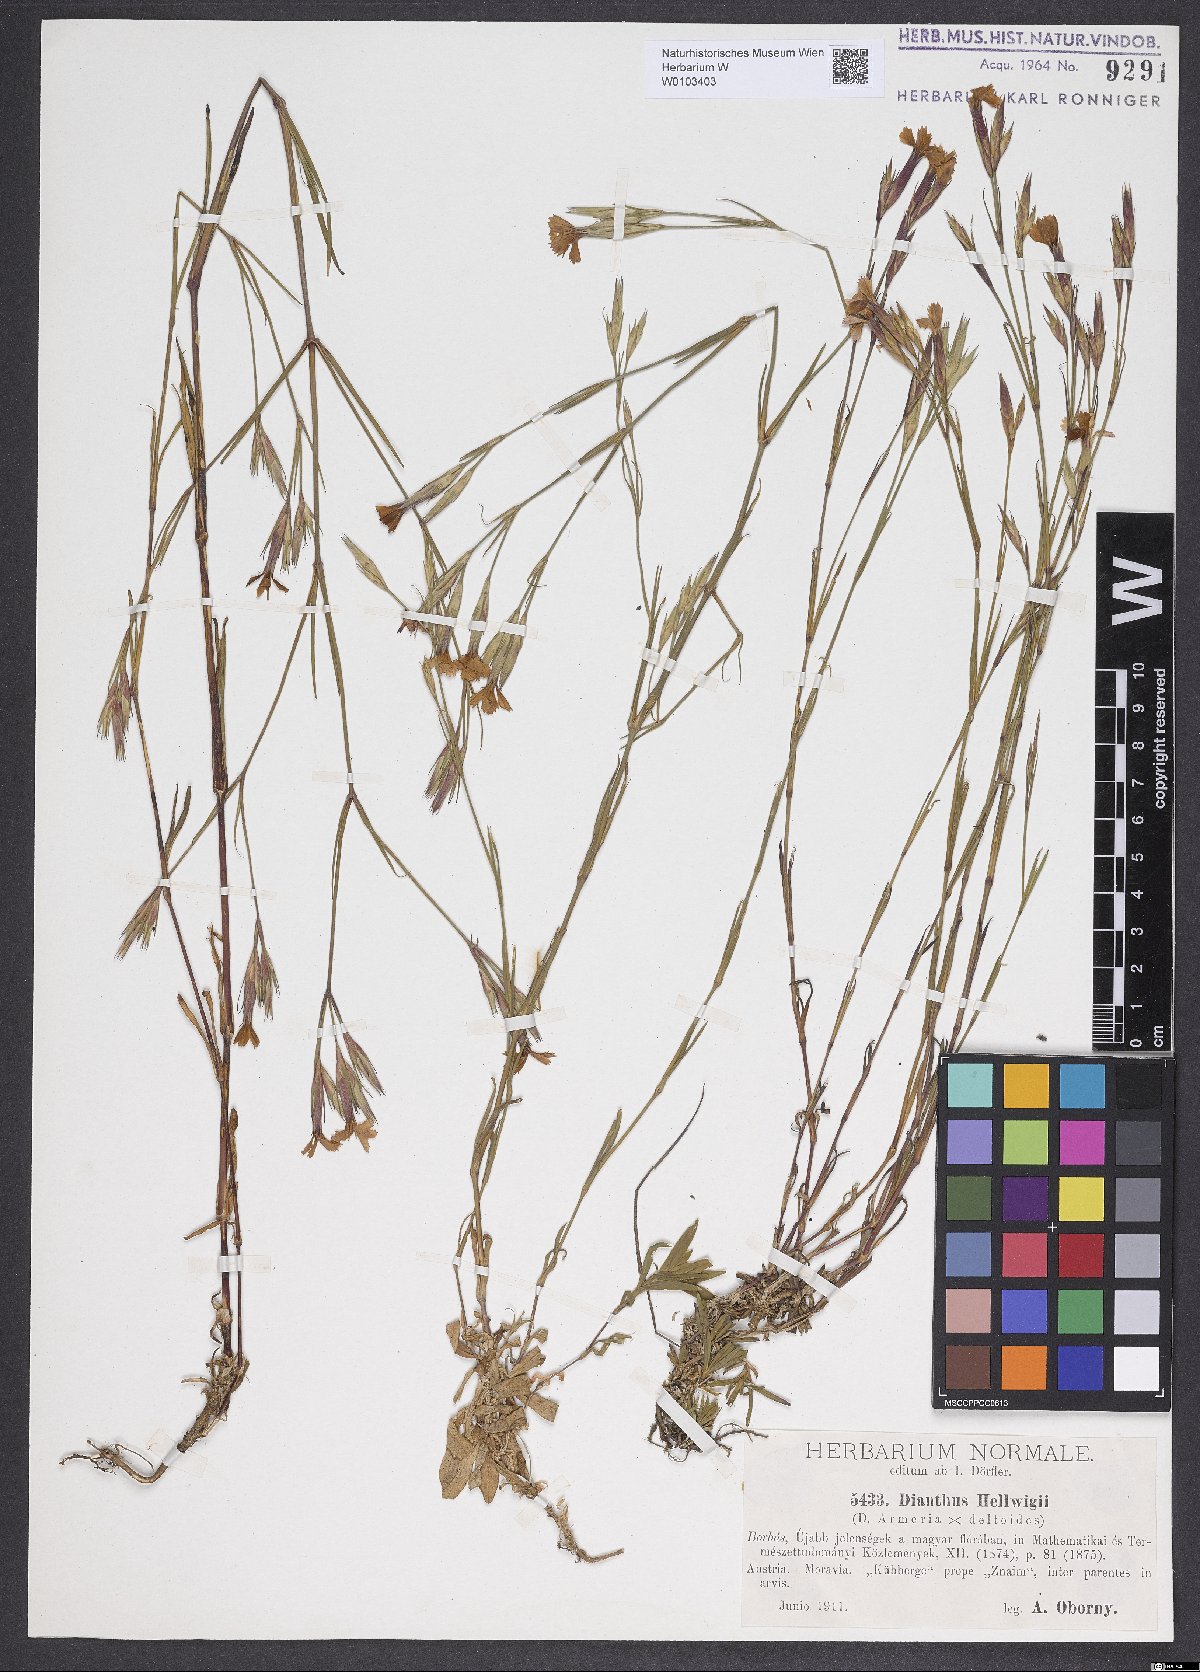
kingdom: Plantae
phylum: Tracheophyta
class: Magnoliopsida
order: Caryophyllales
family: Caryophyllaceae
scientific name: Caryophyllaceae
